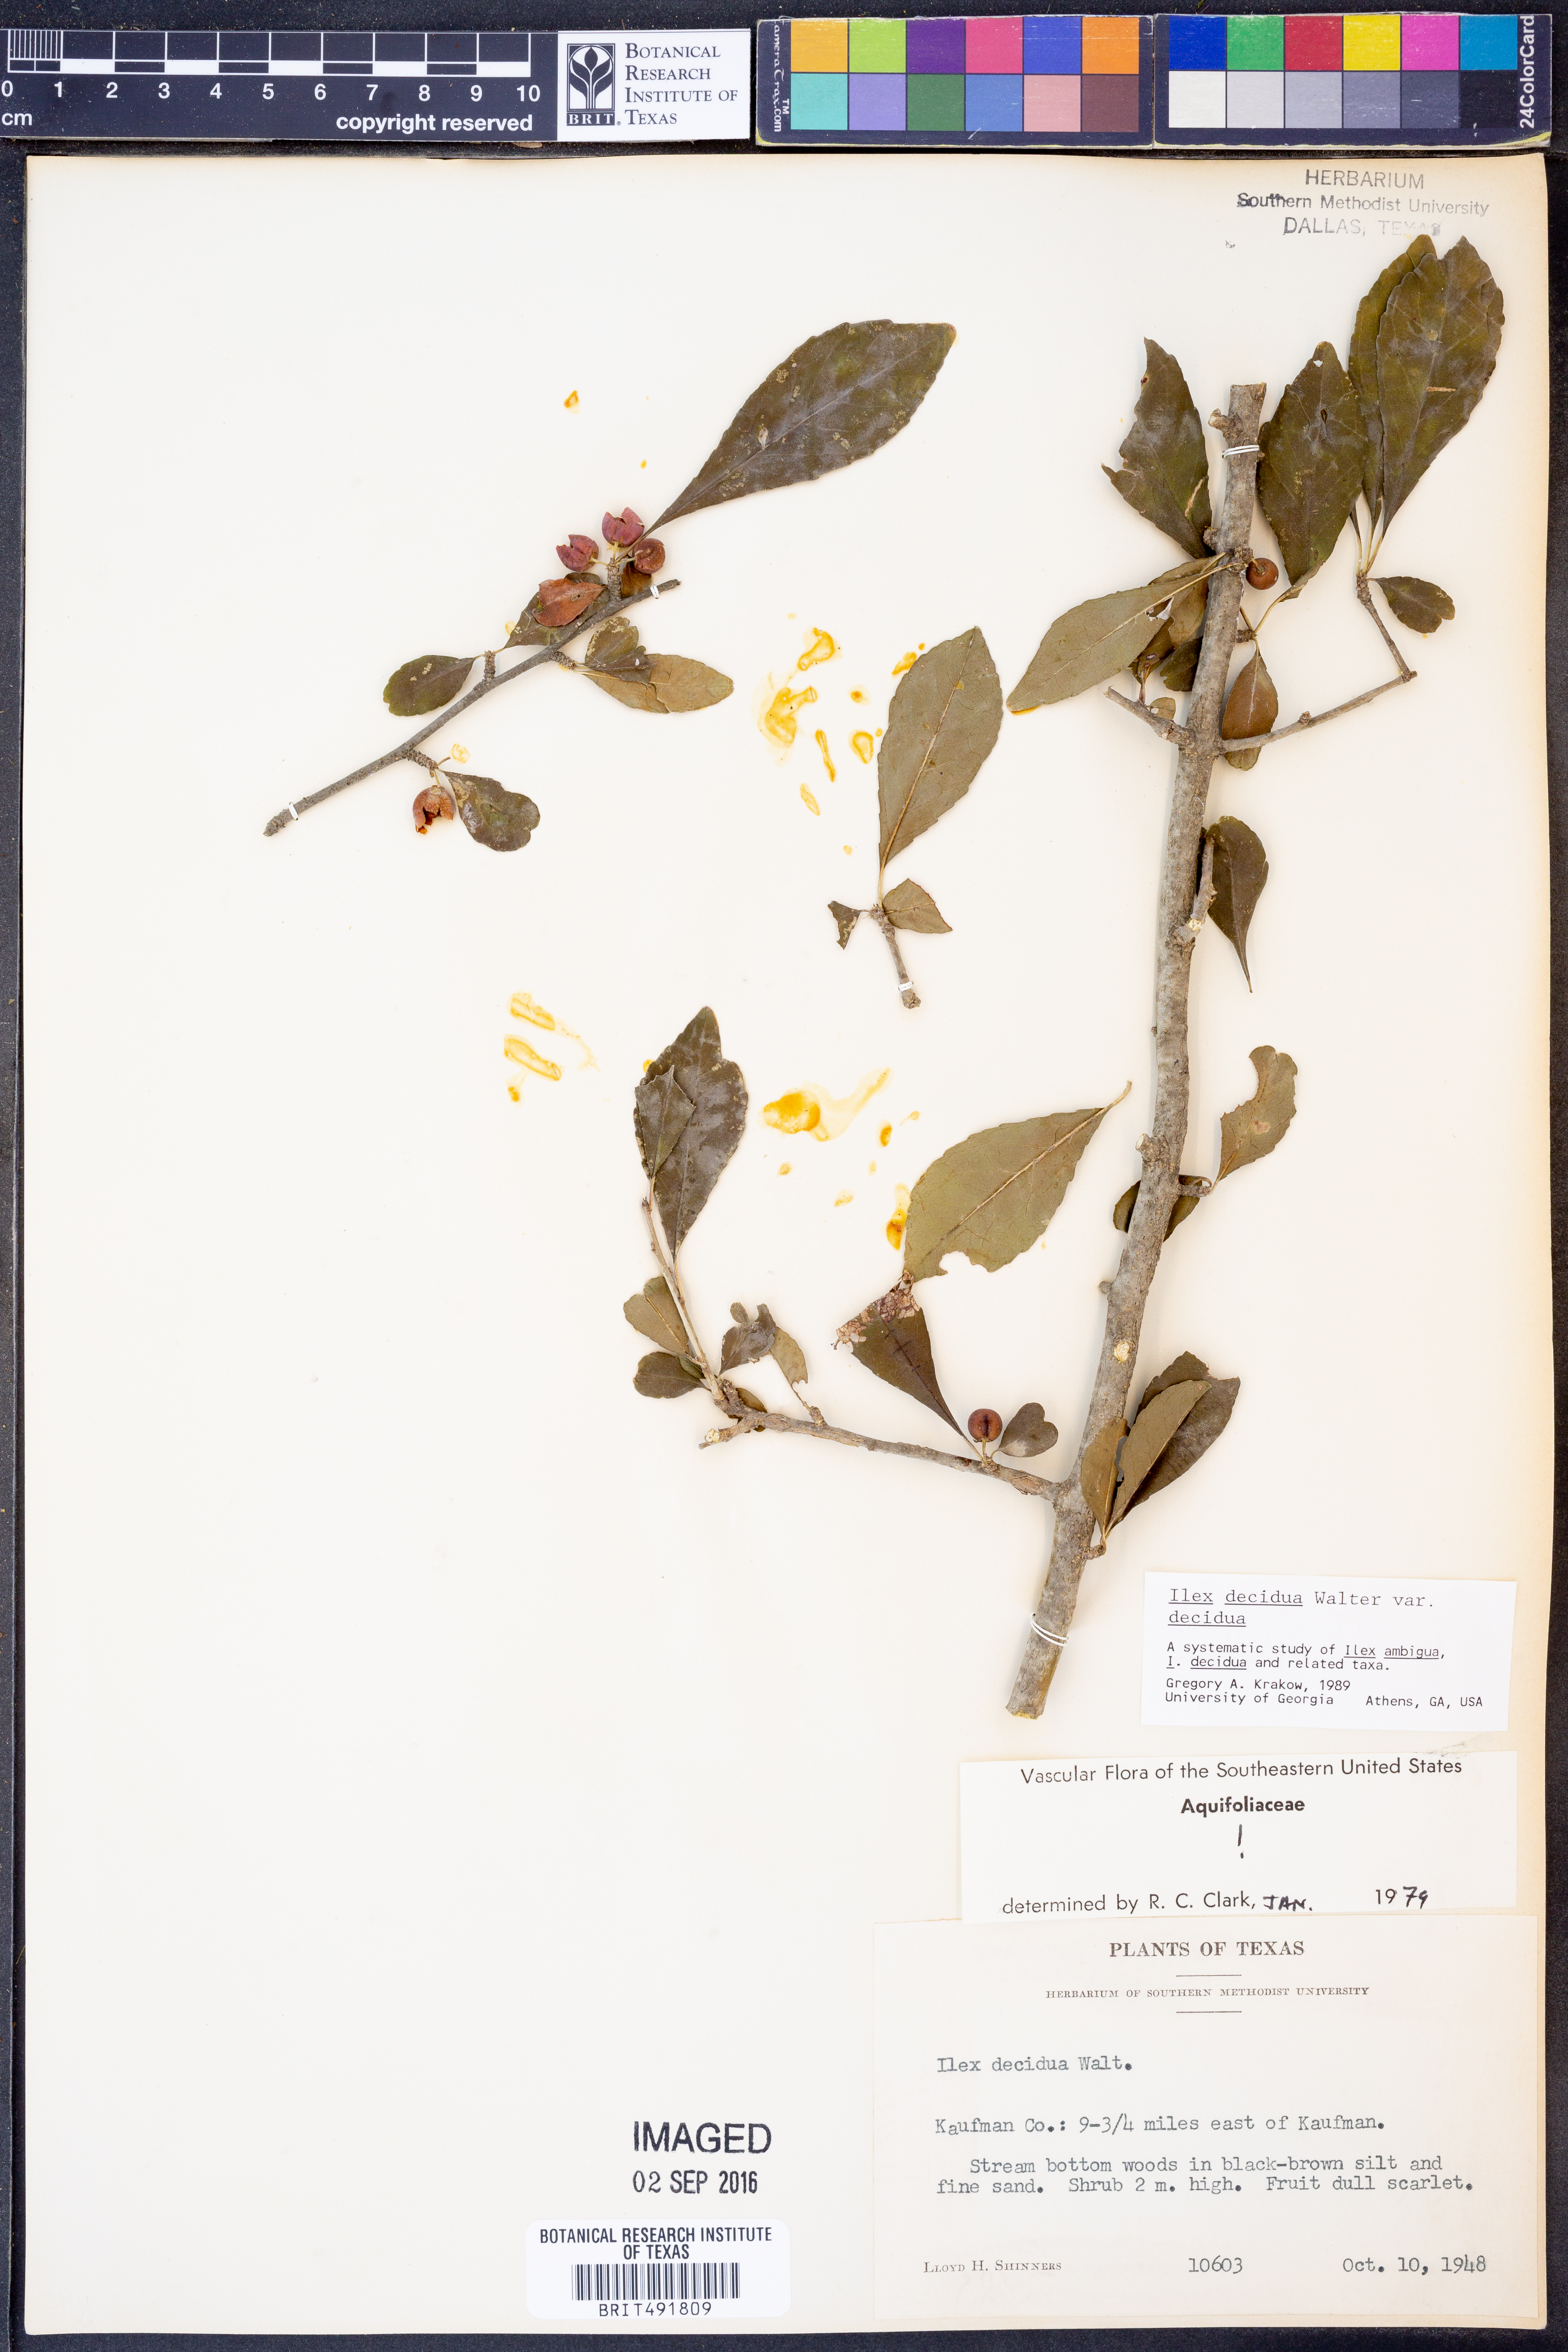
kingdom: Plantae
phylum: Tracheophyta
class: Magnoliopsida
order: Aquifoliales
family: Aquifoliaceae
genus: Ilex
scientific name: Ilex decidua
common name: Possum-haw
